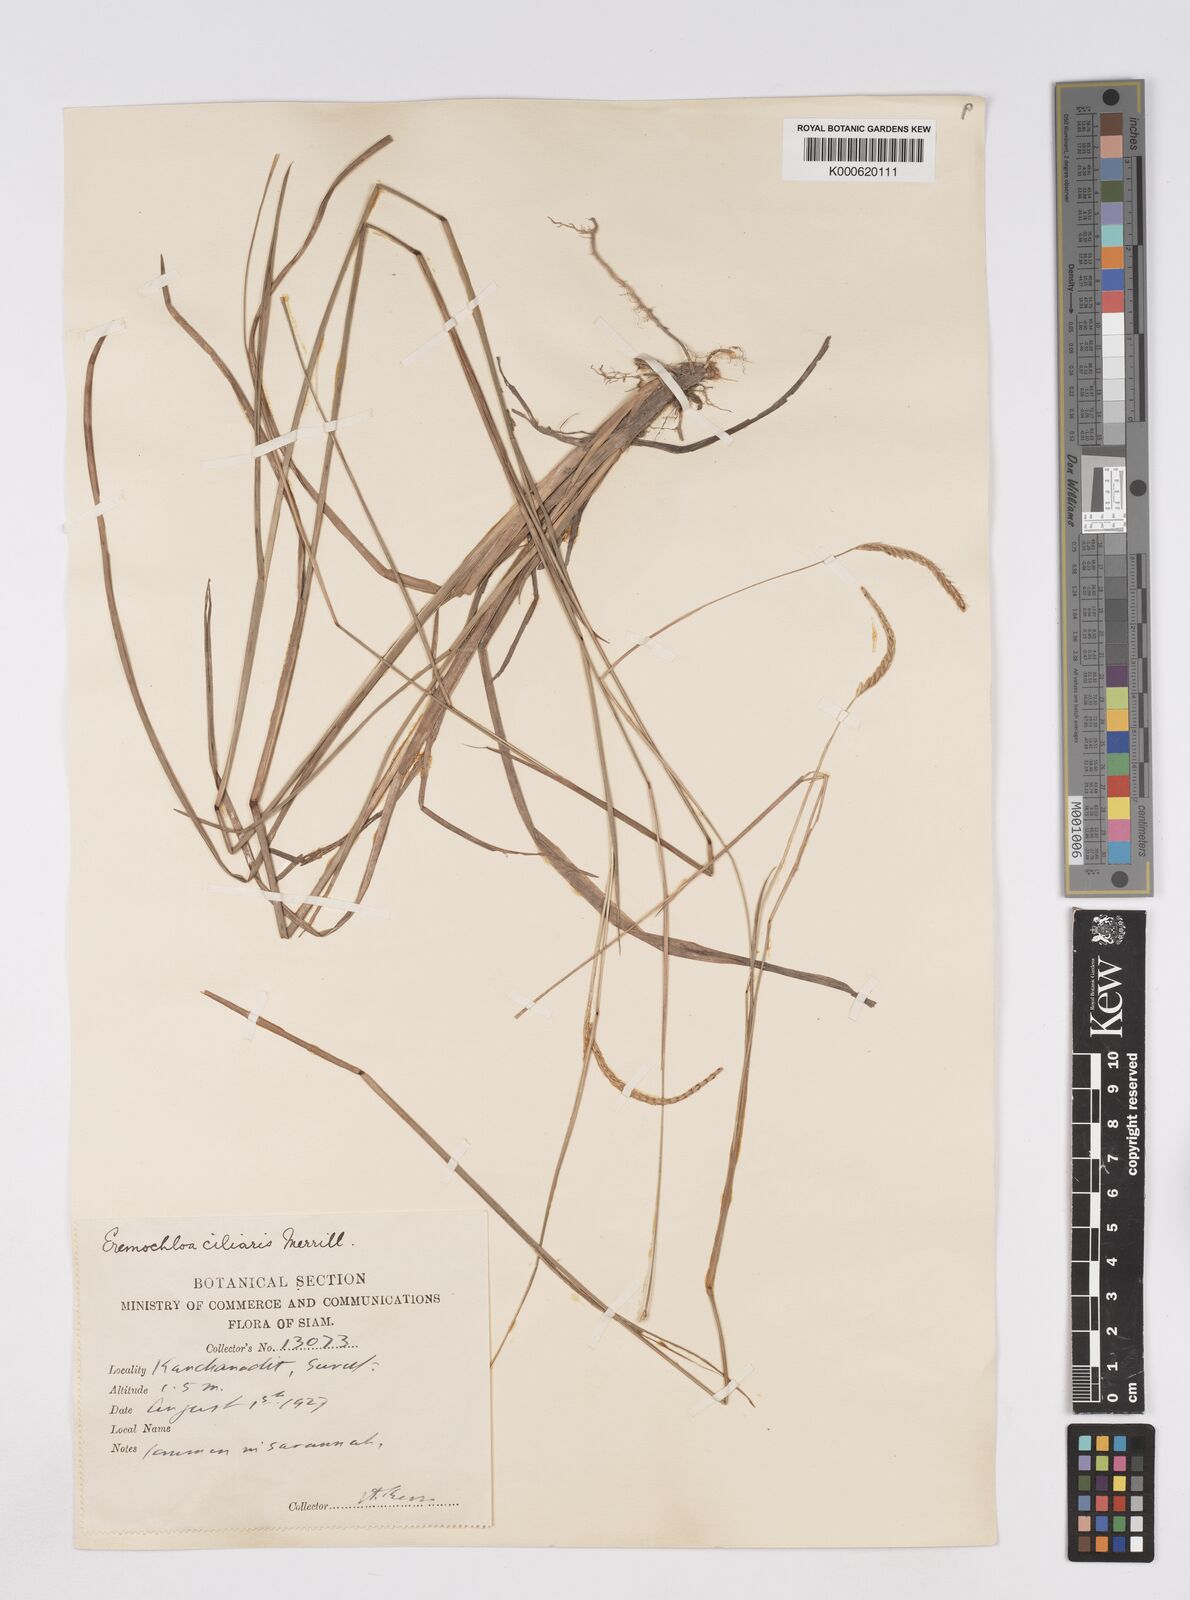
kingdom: Plantae
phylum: Tracheophyta
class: Liliopsida
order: Poales
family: Poaceae
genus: Eremochloa
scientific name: Eremochloa ciliaris
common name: Fringed centipede grass
